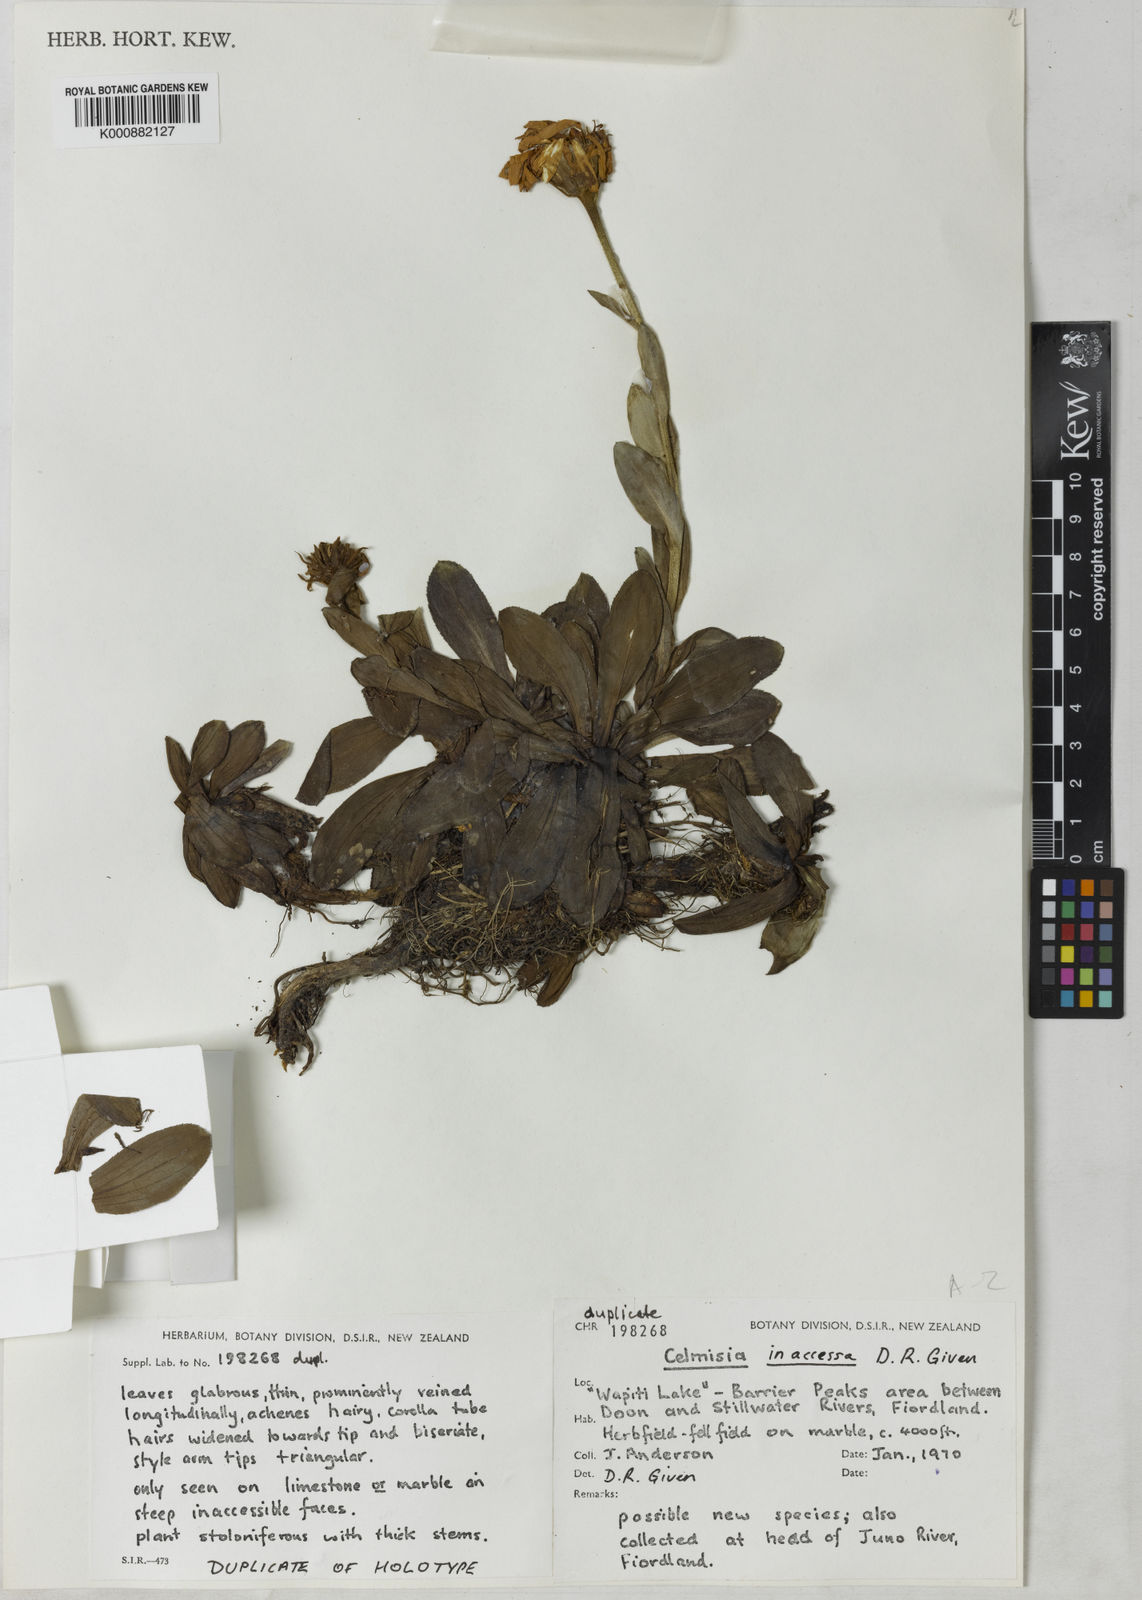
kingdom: Plantae
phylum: Tracheophyta
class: Magnoliopsida
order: Asterales
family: Asteraceae
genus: Celmisia
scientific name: Celmisia inaccessa
